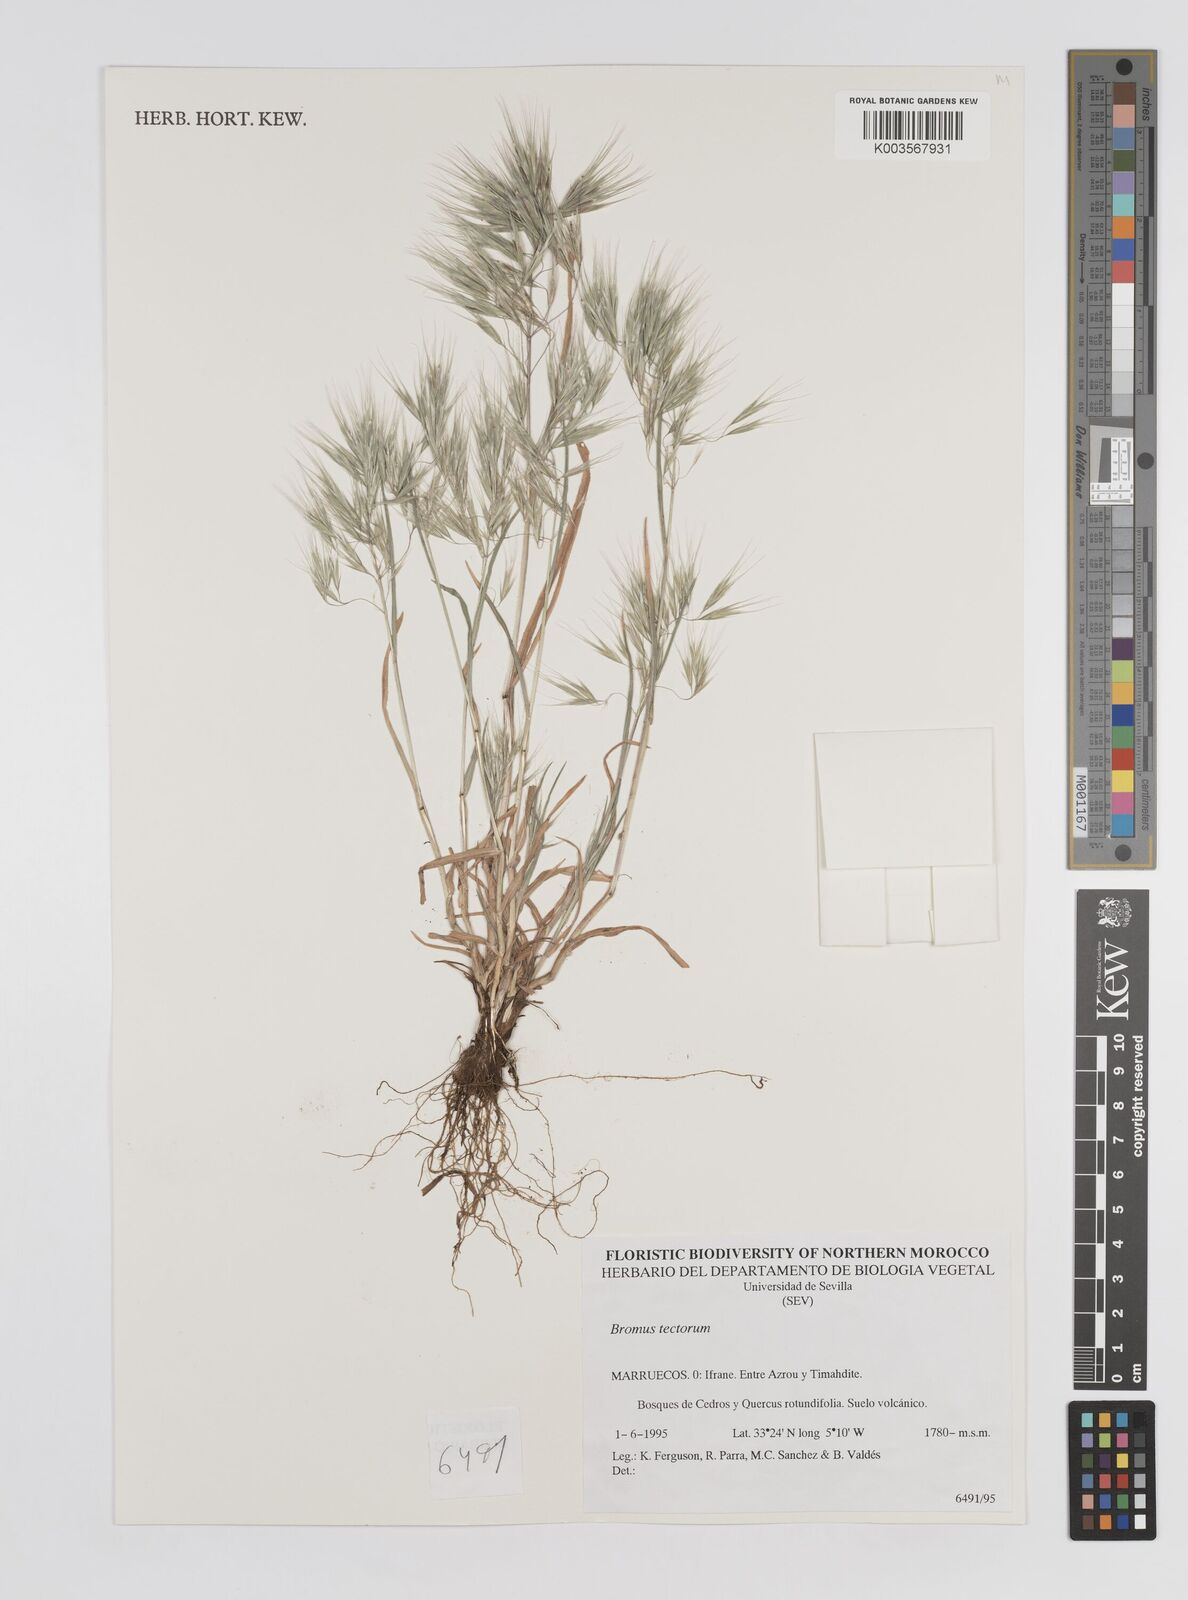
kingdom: Plantae
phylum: Tracheophyta
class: Liliopsida
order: Poales
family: Poaceae
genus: Bromus
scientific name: Bromus tectorum
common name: Cheatgrass
